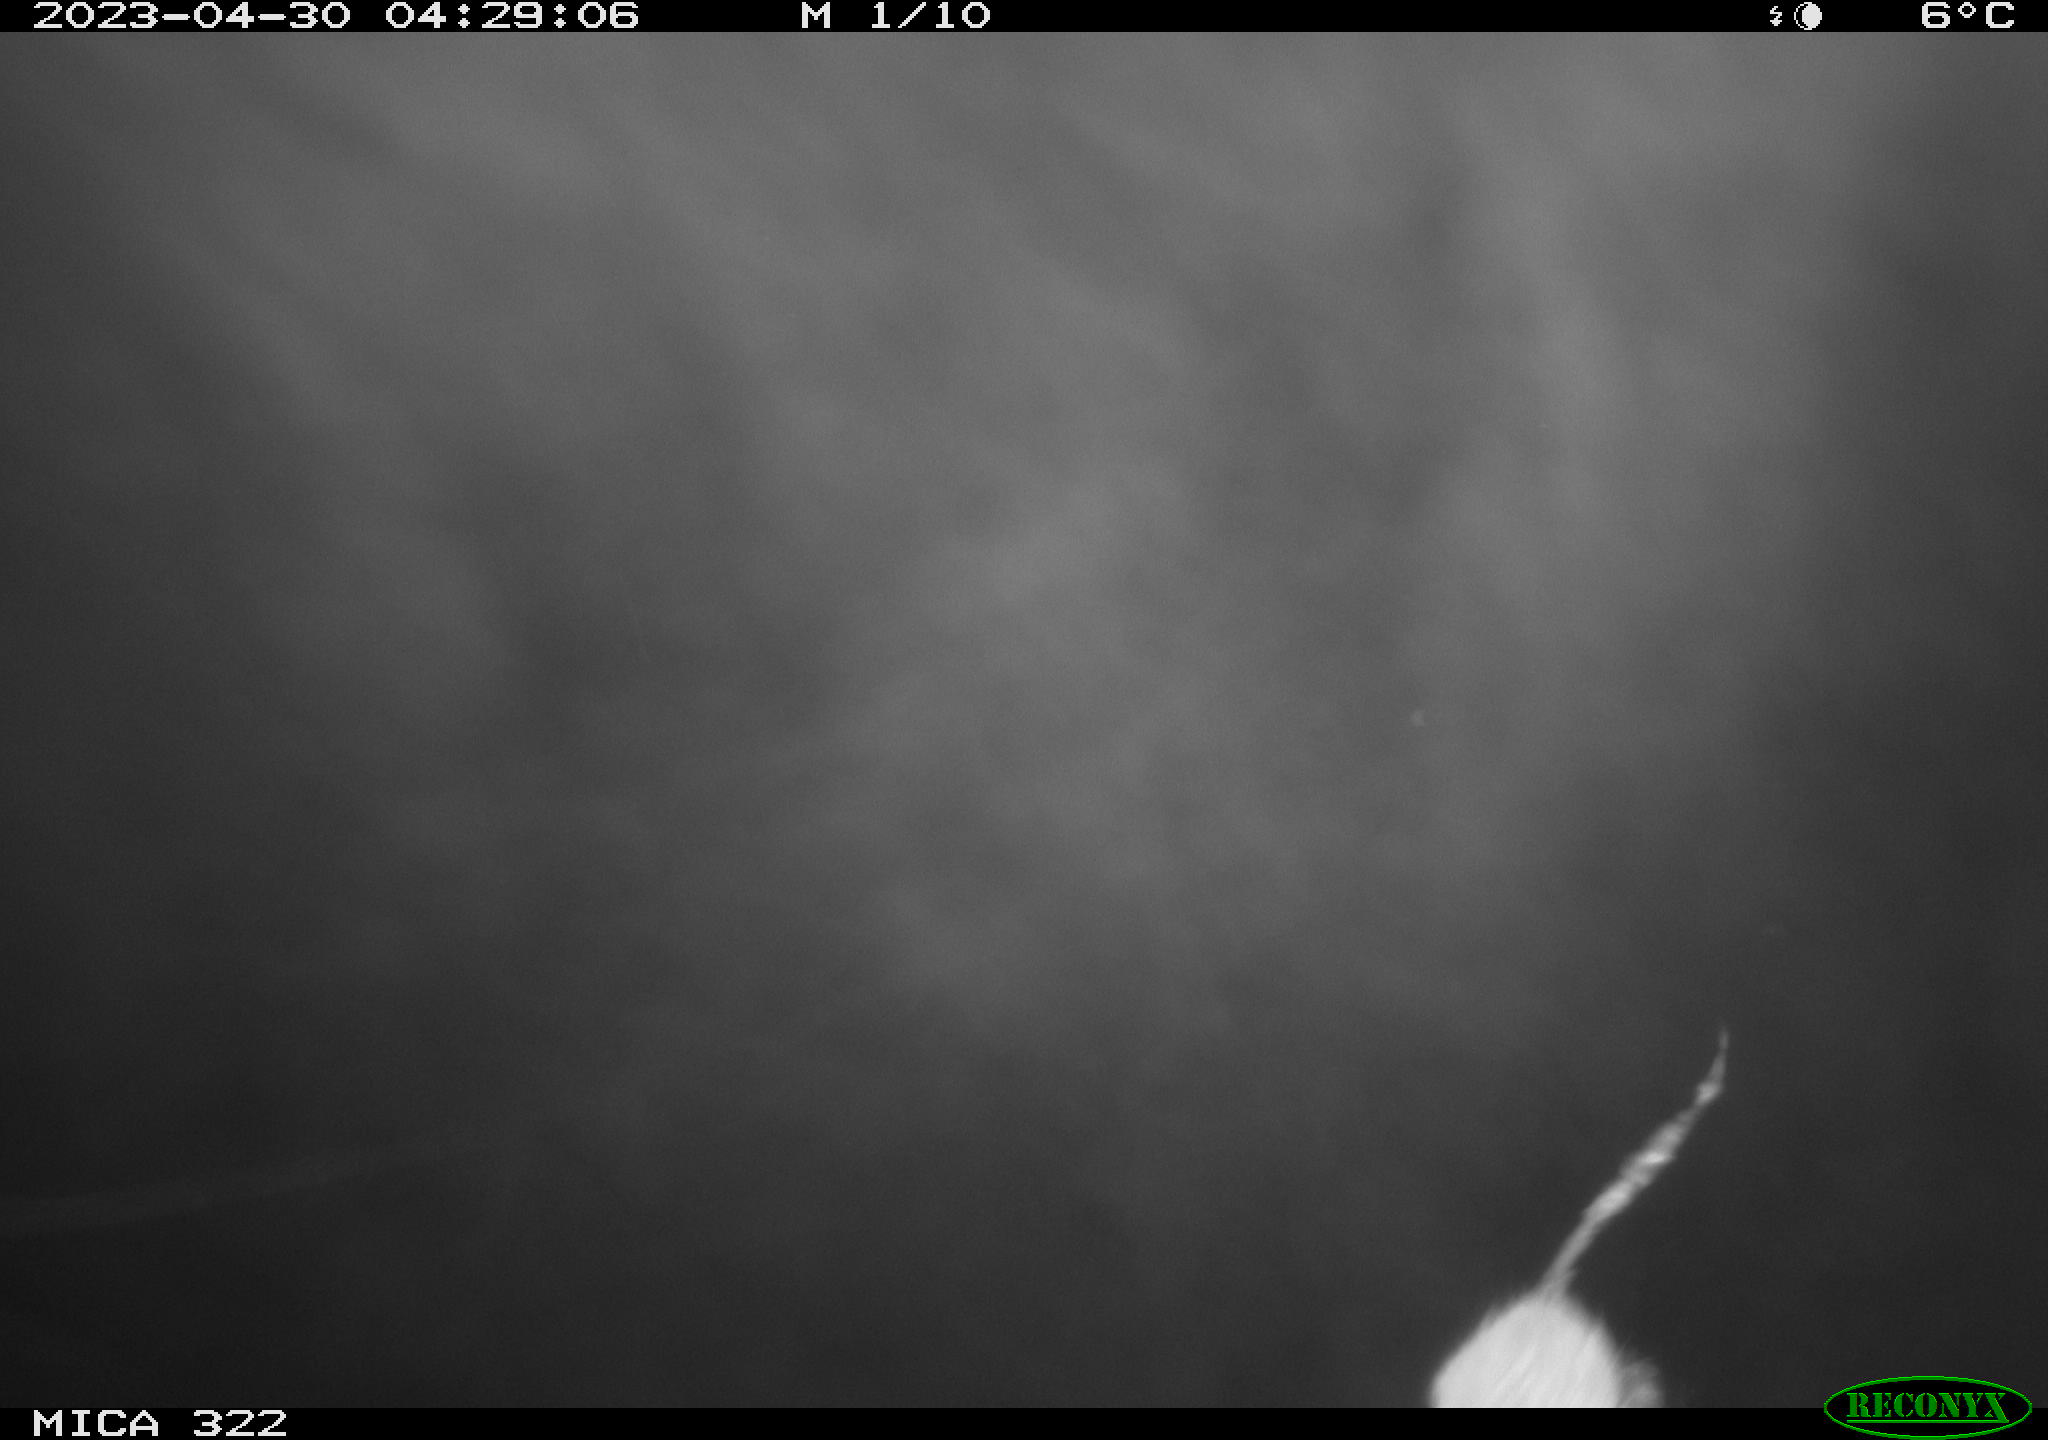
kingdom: Animalia
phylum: Chordata
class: Mammalia
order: Rodentia
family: Muridae
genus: Rattus
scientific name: Rattus norvegicus
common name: Brown rat
